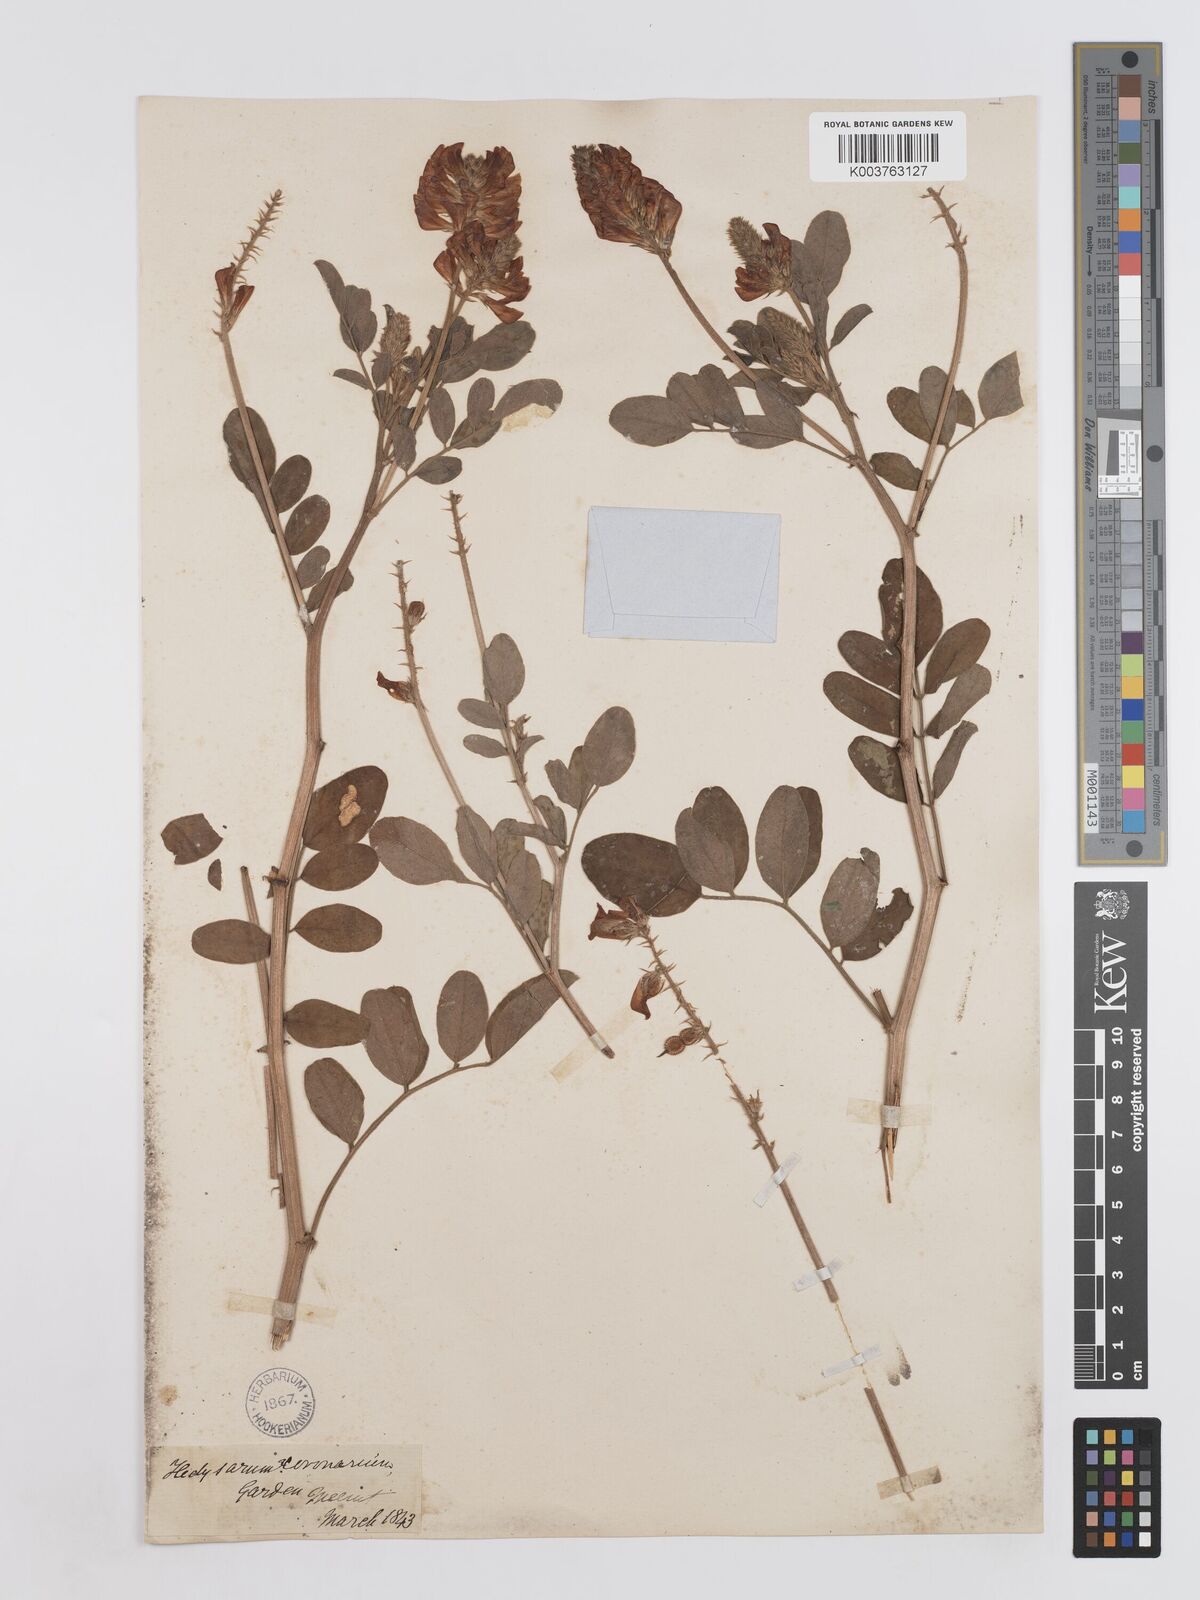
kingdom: Plantae
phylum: Tracheophyta
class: Magnoliopsida
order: Fabales
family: Fabaceae
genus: Sulla
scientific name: Sulla coronaria
